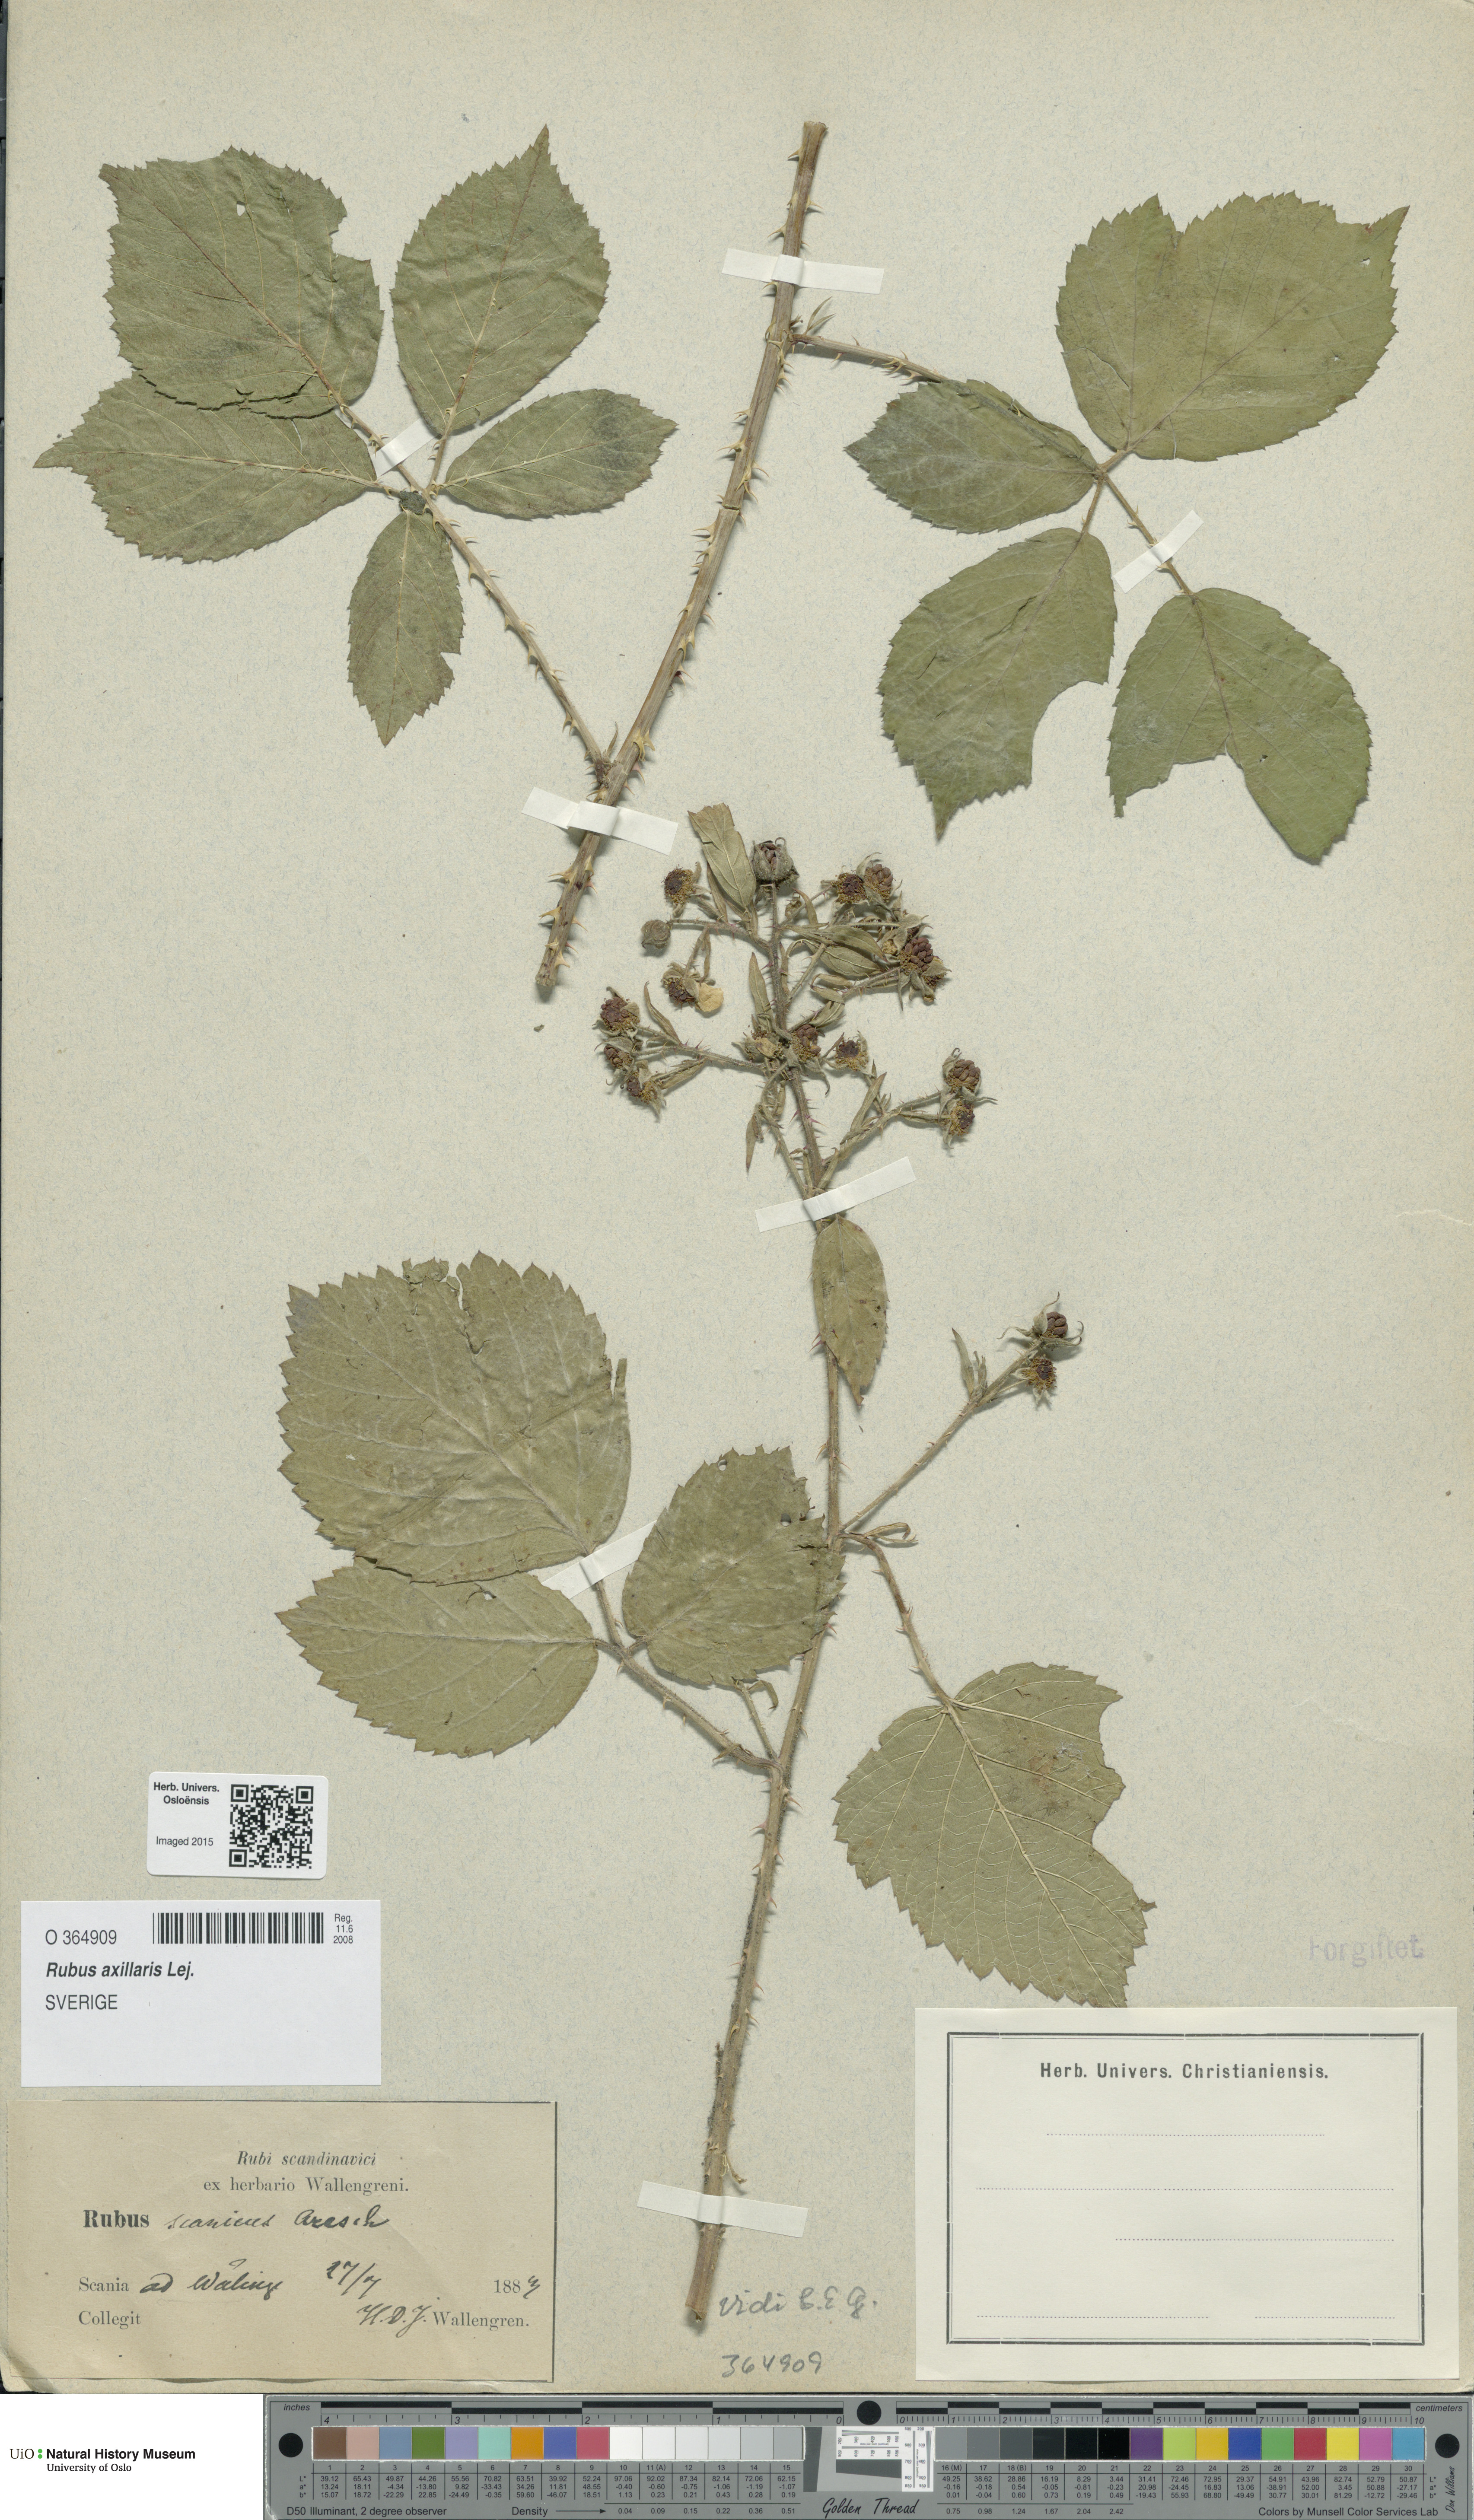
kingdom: Plantae
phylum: Tracheophyta
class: Magnoliopsida
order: Rosales
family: Rosaceae
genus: Rubus
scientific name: Rubus axillaris
